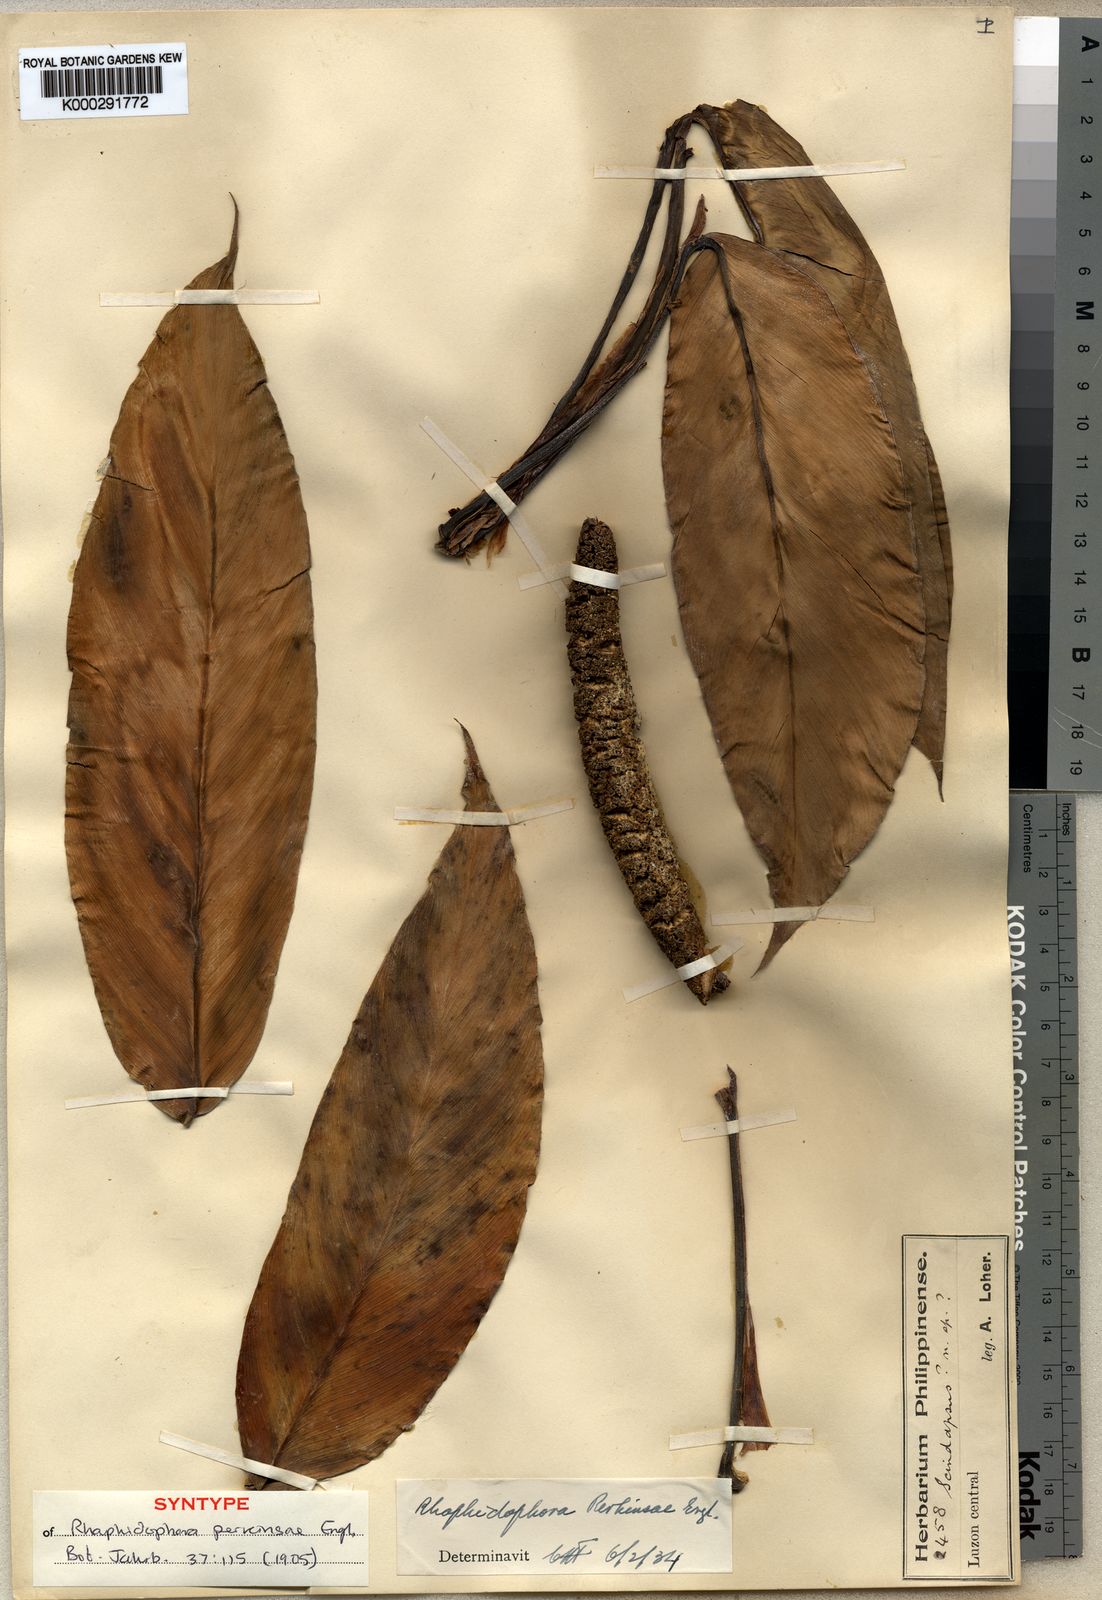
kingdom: Plantae
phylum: Tracheophyta
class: Liliopsida
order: Alismatales
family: Araceae
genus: Rhaphidophora
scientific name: Rhaphidophora perkinsiae
